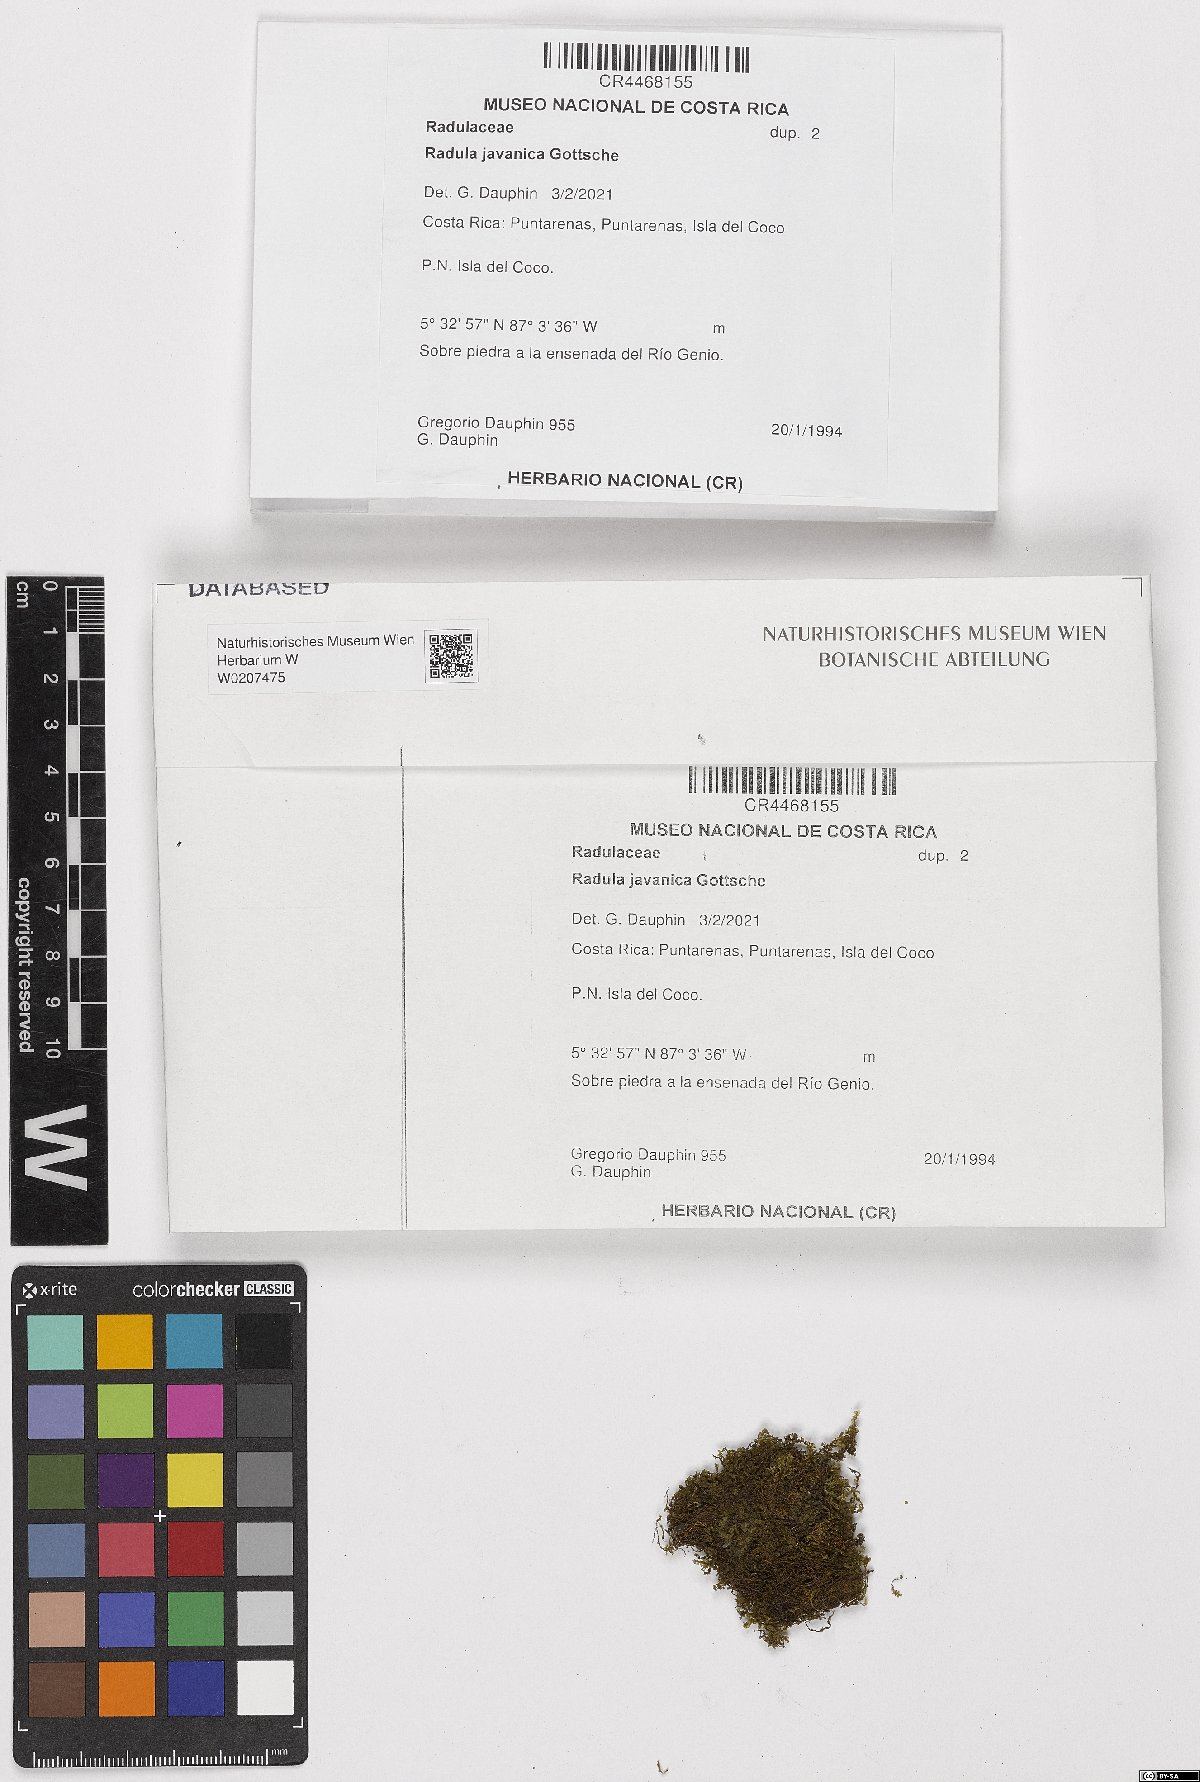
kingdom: Plantae
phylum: Marchantiophyta
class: Jungermanniopsida
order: Porellales
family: Radulaceae
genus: Radula
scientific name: Radula javanica
